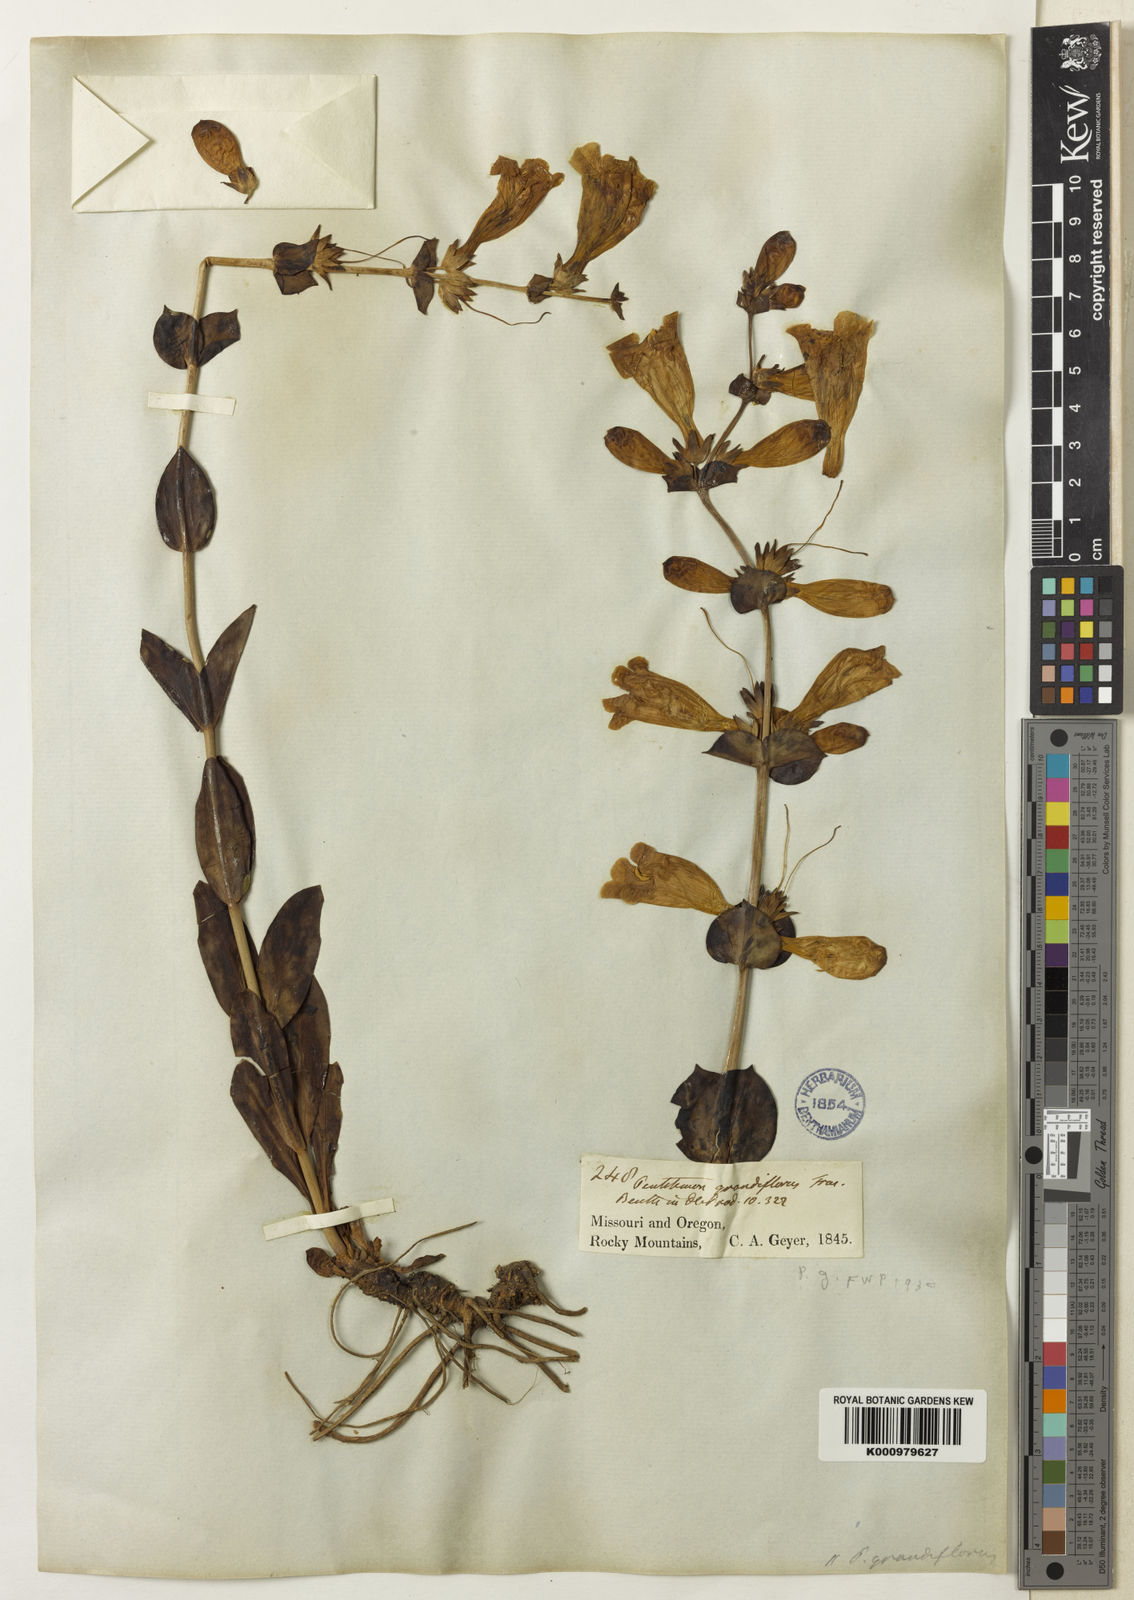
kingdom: Plantae
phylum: Tracheophyta
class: Magnoliopsida
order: Lamiales
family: Plantaginaceae
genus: Penstemon
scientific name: Penstemon bradburyi
